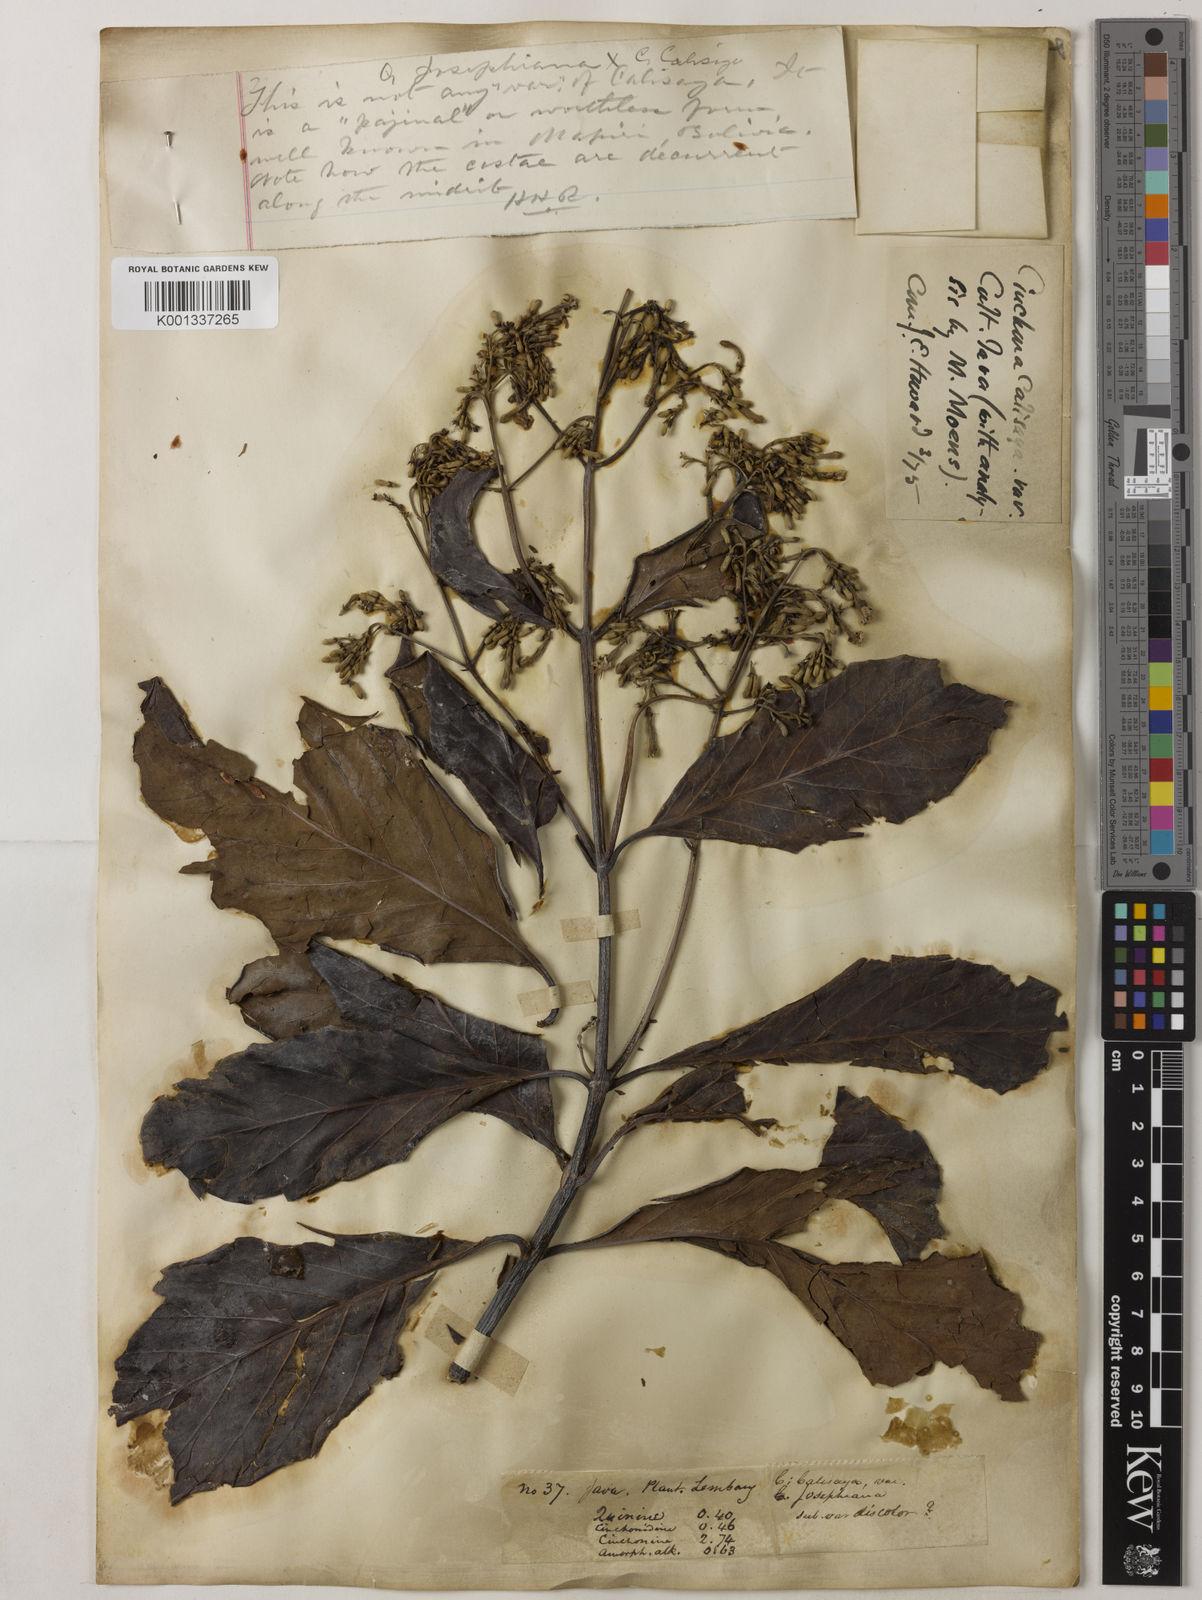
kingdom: Plantae
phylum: Tracheophyta
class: Magnoliopsida
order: Gentianales
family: Rubiaceae
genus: Cinchona
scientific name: Cinchona calisaya
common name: Ledgerbark
